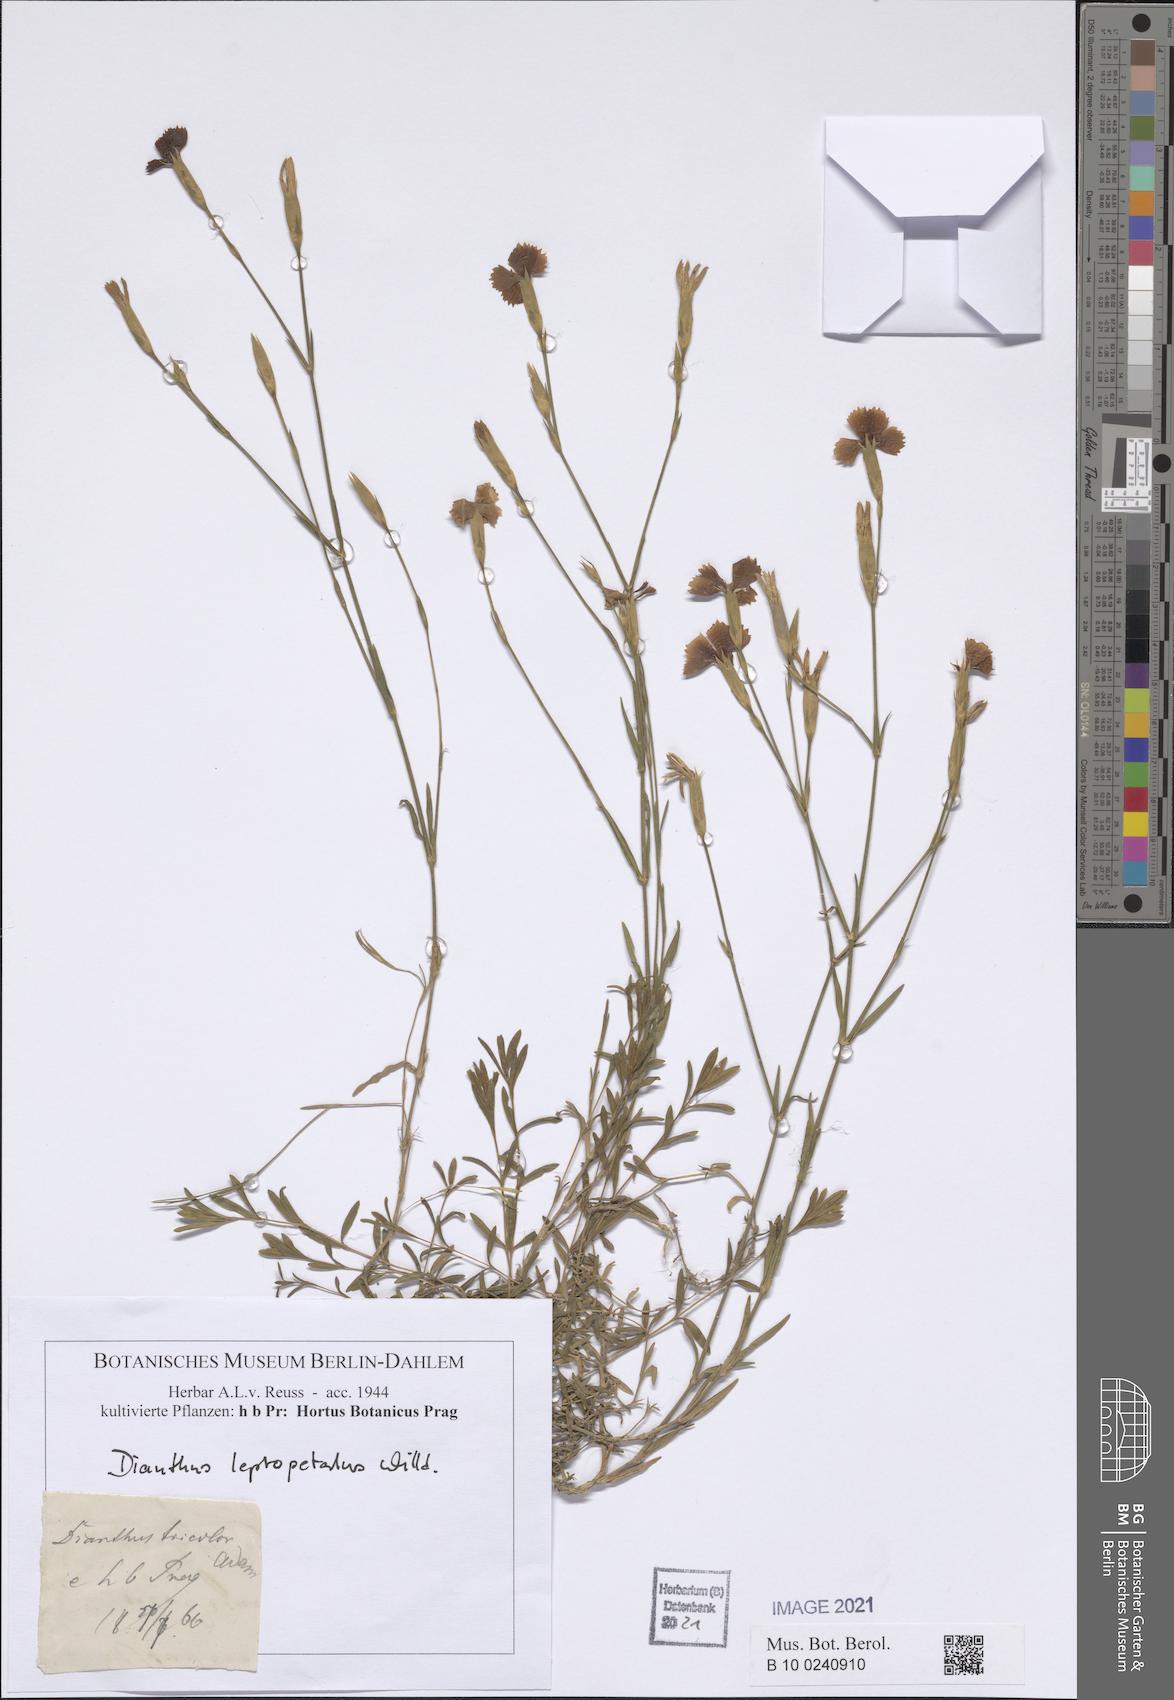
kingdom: Plantae
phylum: Tracheophyta
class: Magnoliopsida
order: Caryophyllales
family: Caryophyllaceae
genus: Dianthus
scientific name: Dianthus leptopetalus
